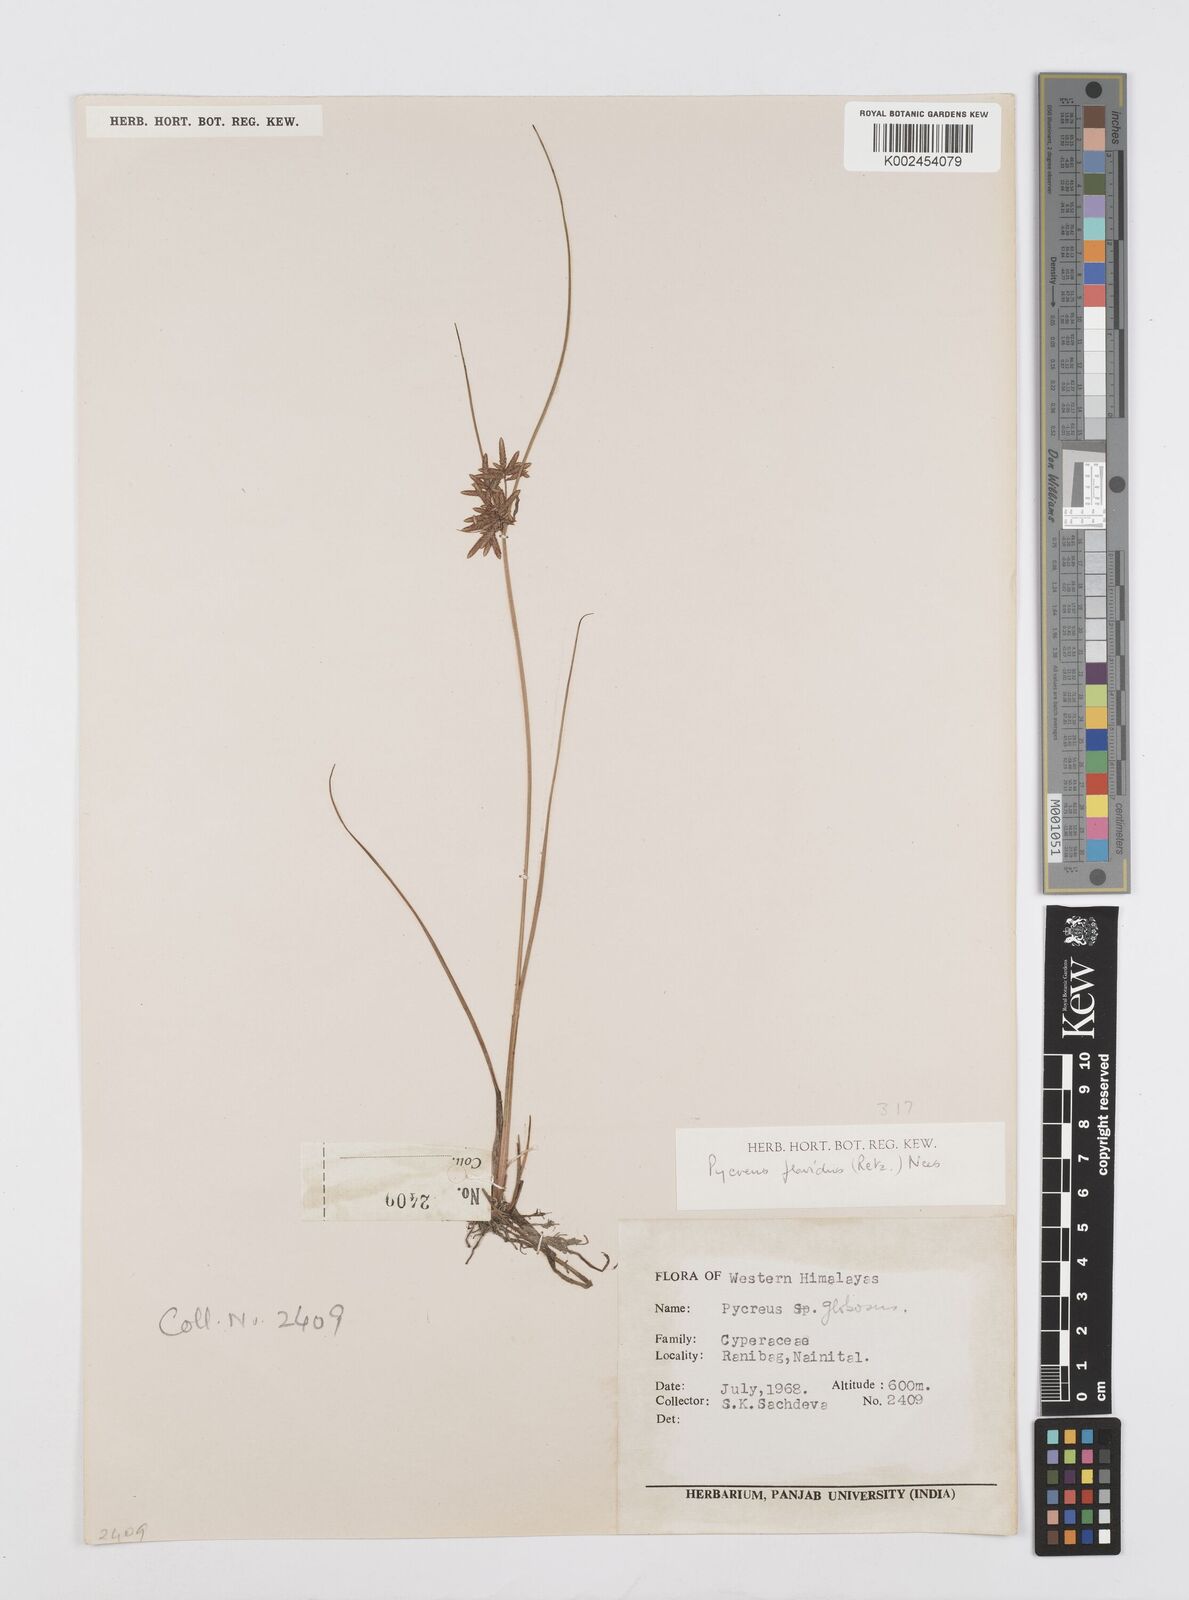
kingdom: Plantae
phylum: Tracheophyta
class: Liliopsida
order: Poales
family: Cyperaceae
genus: Cyperus
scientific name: Cyperus flavidus
